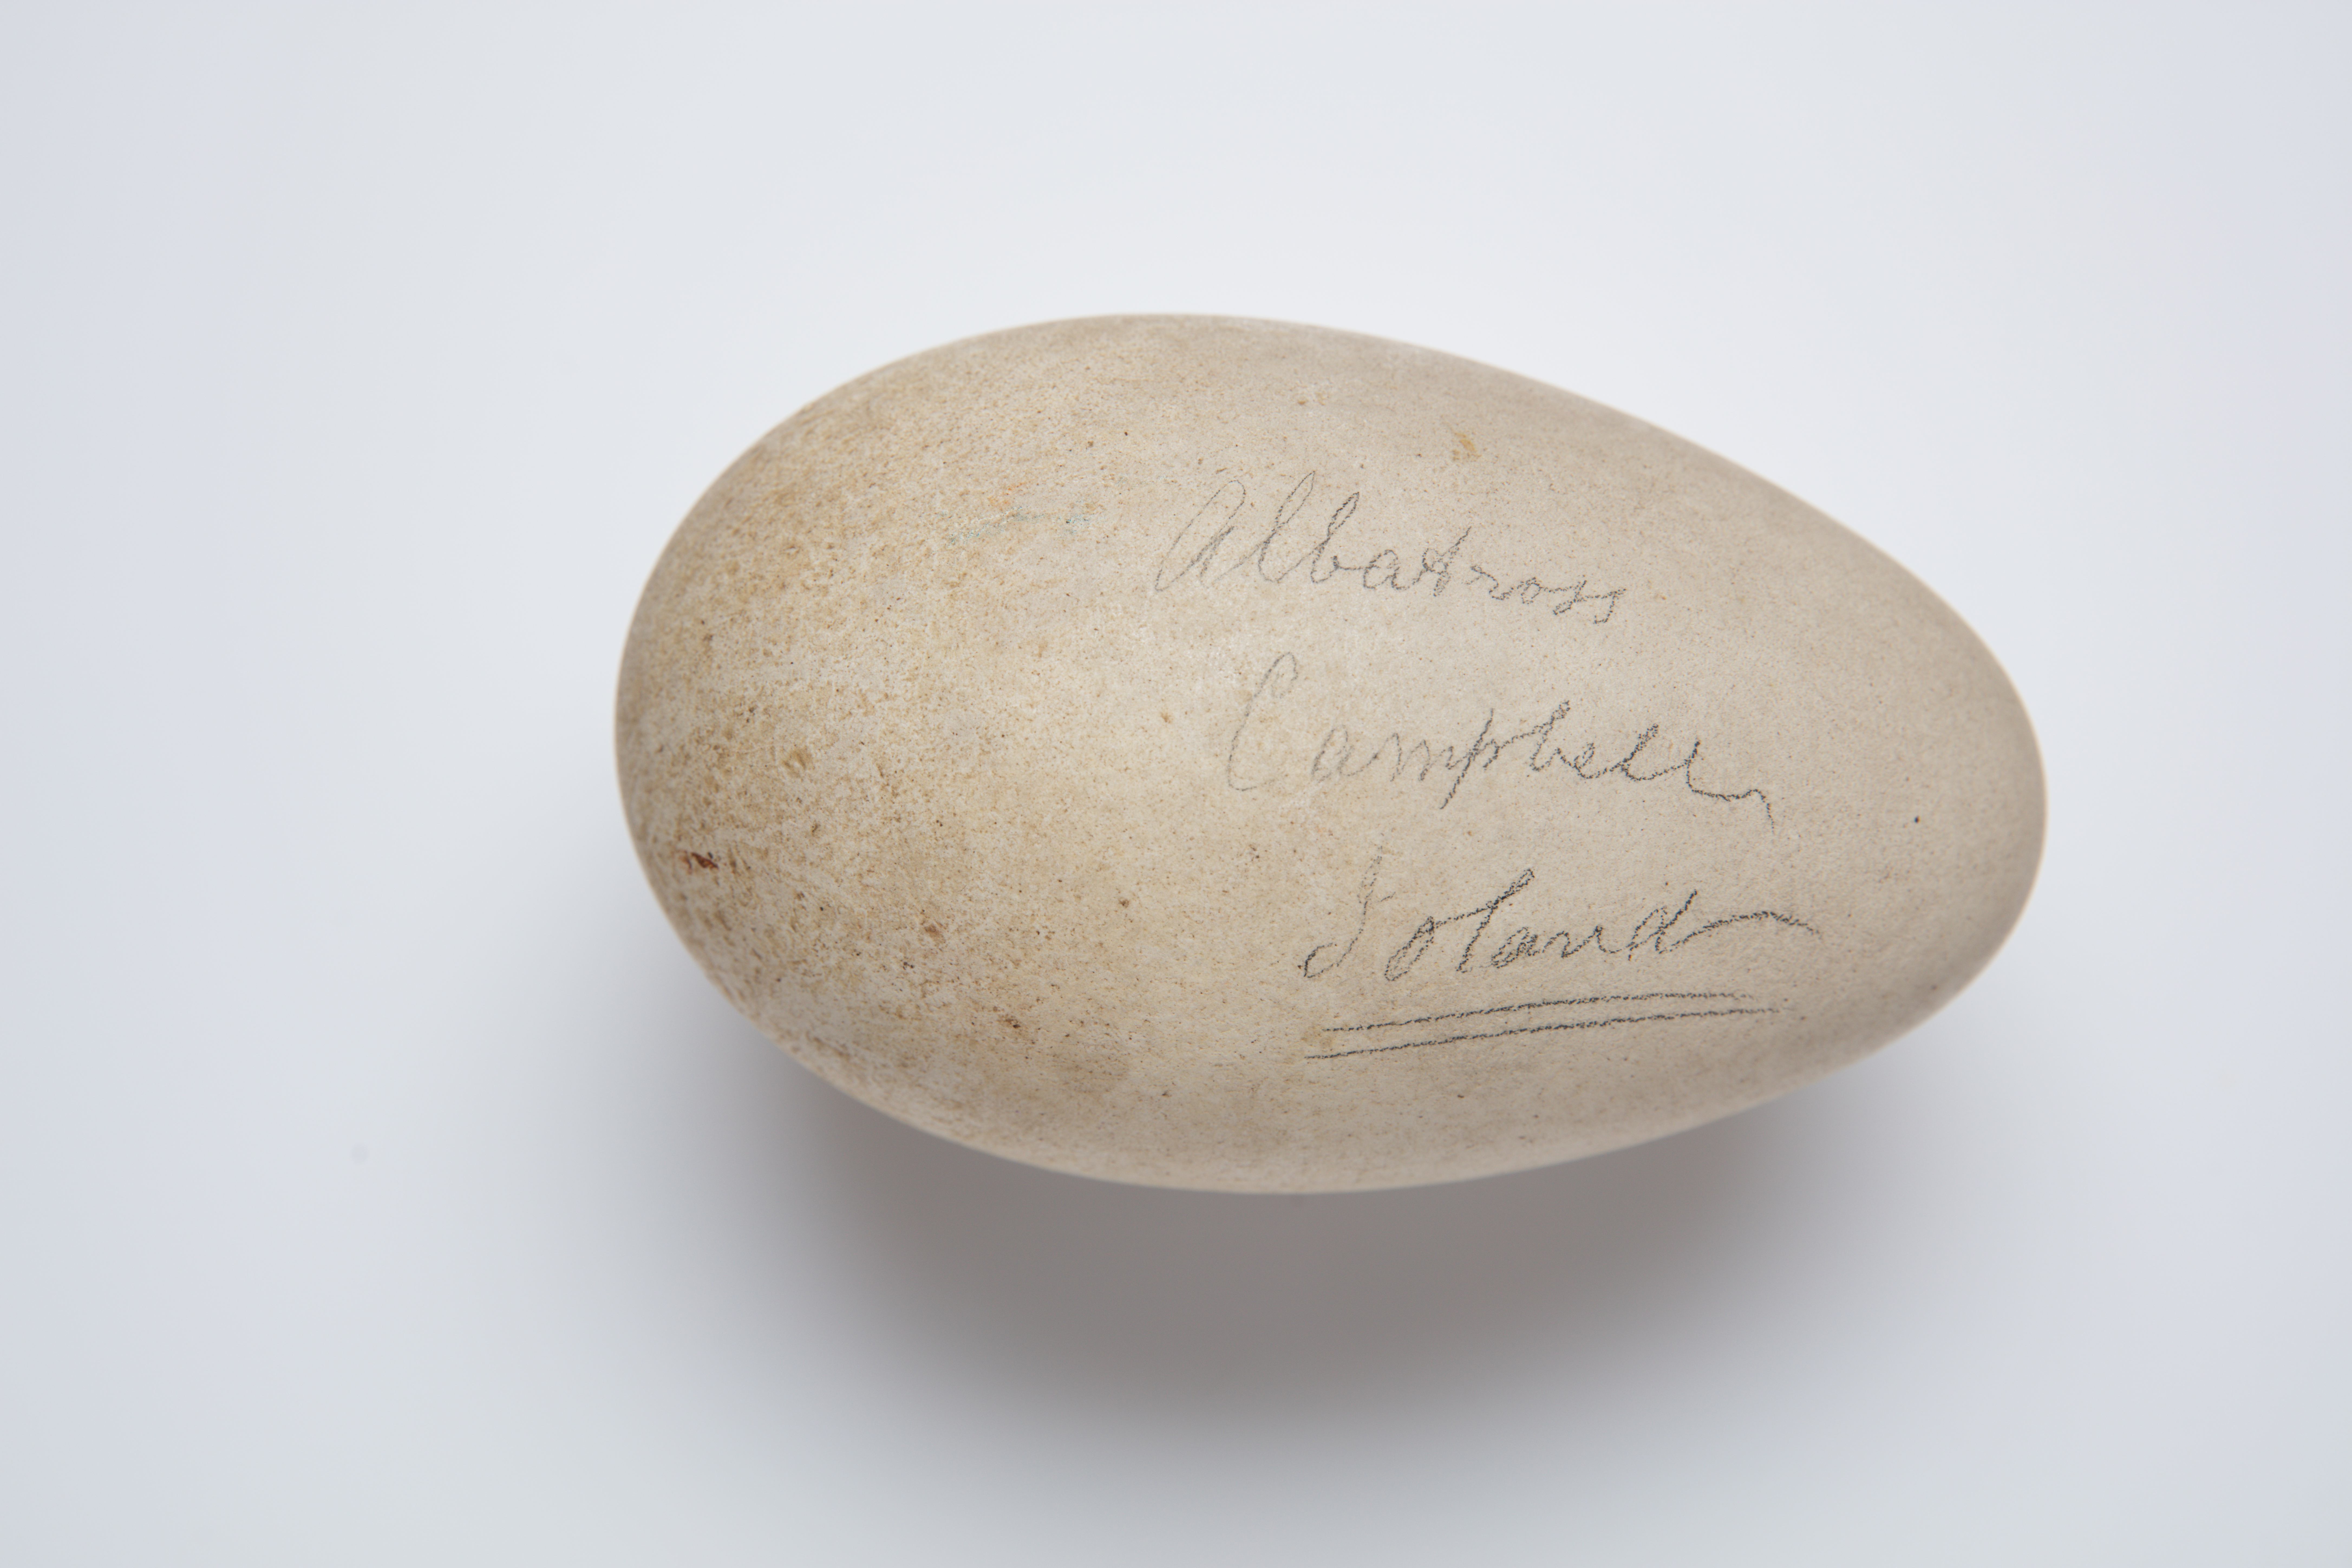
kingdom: Animalia
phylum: Chordata
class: Aves
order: Procellariiformes
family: Diomedeidae
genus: Diomedea
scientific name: Diomedea antipodensis
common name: Antipodean albatross
